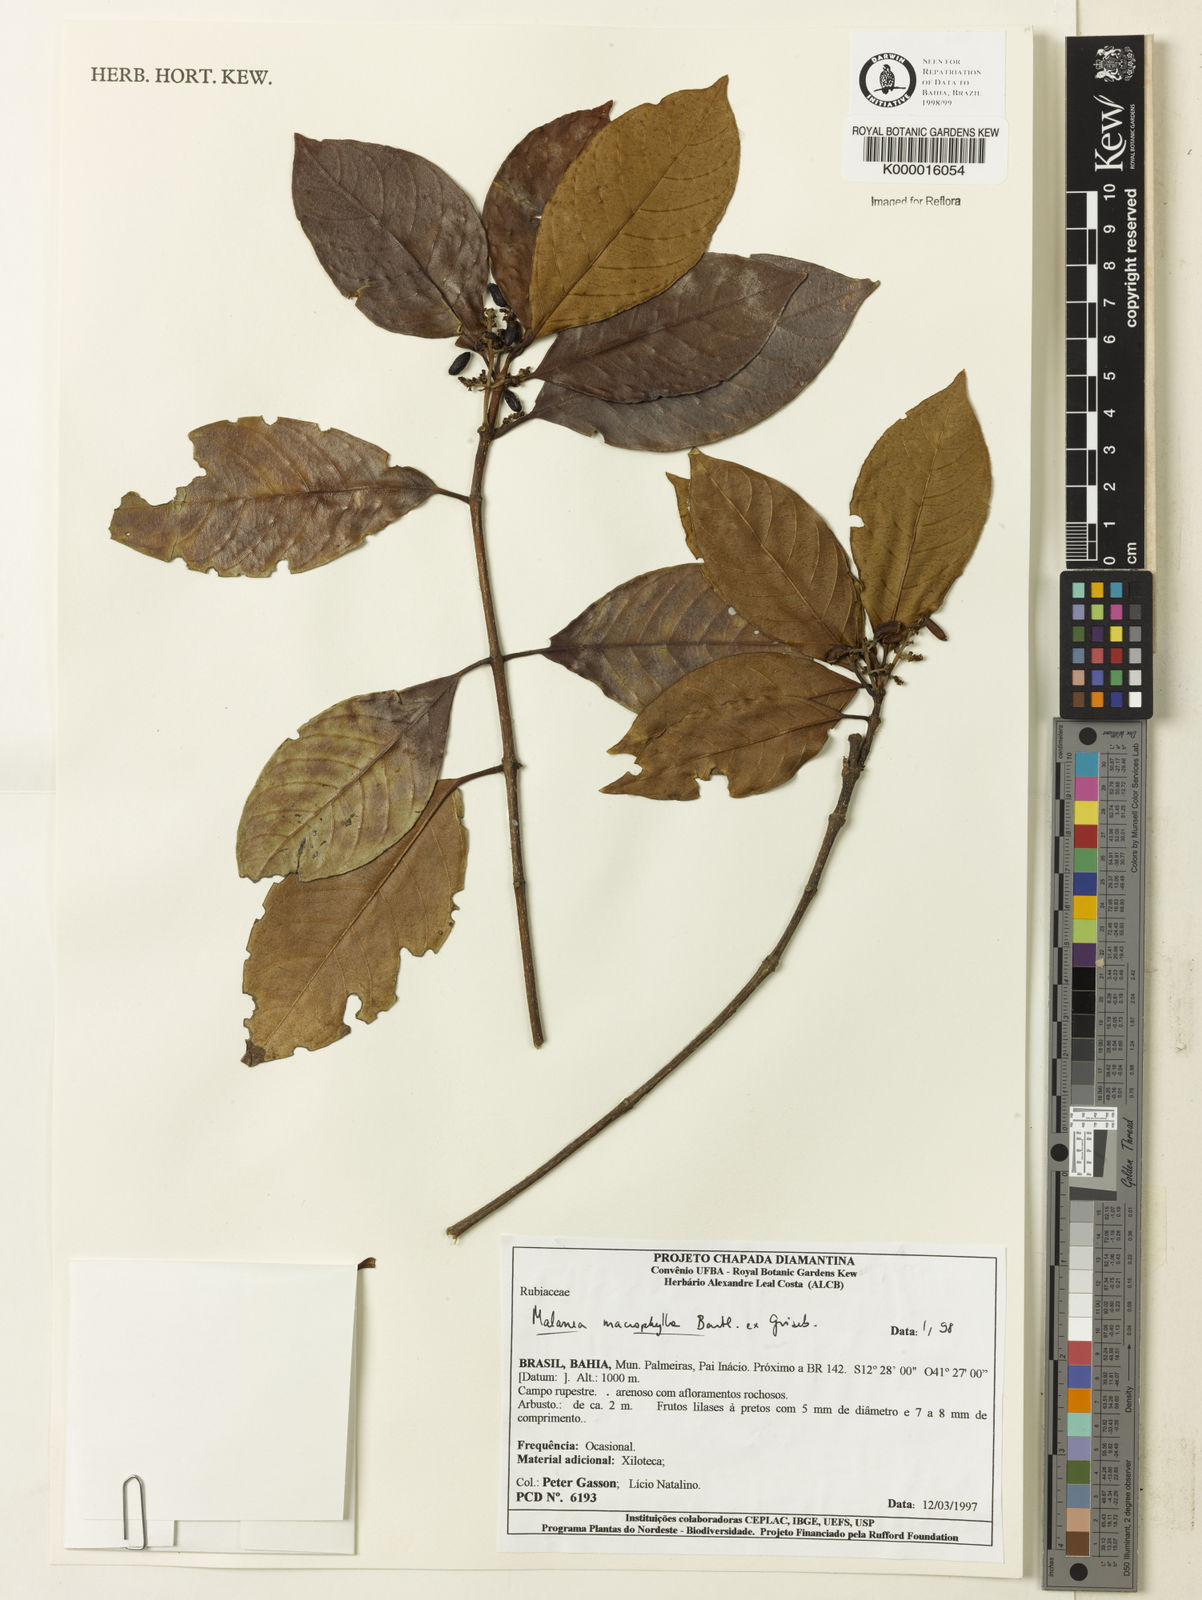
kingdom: Plantae
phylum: Tracheophyta
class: Magnoliopsida
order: Gentianales
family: Rubiaceae
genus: Malanea
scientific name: Malanea glabra
